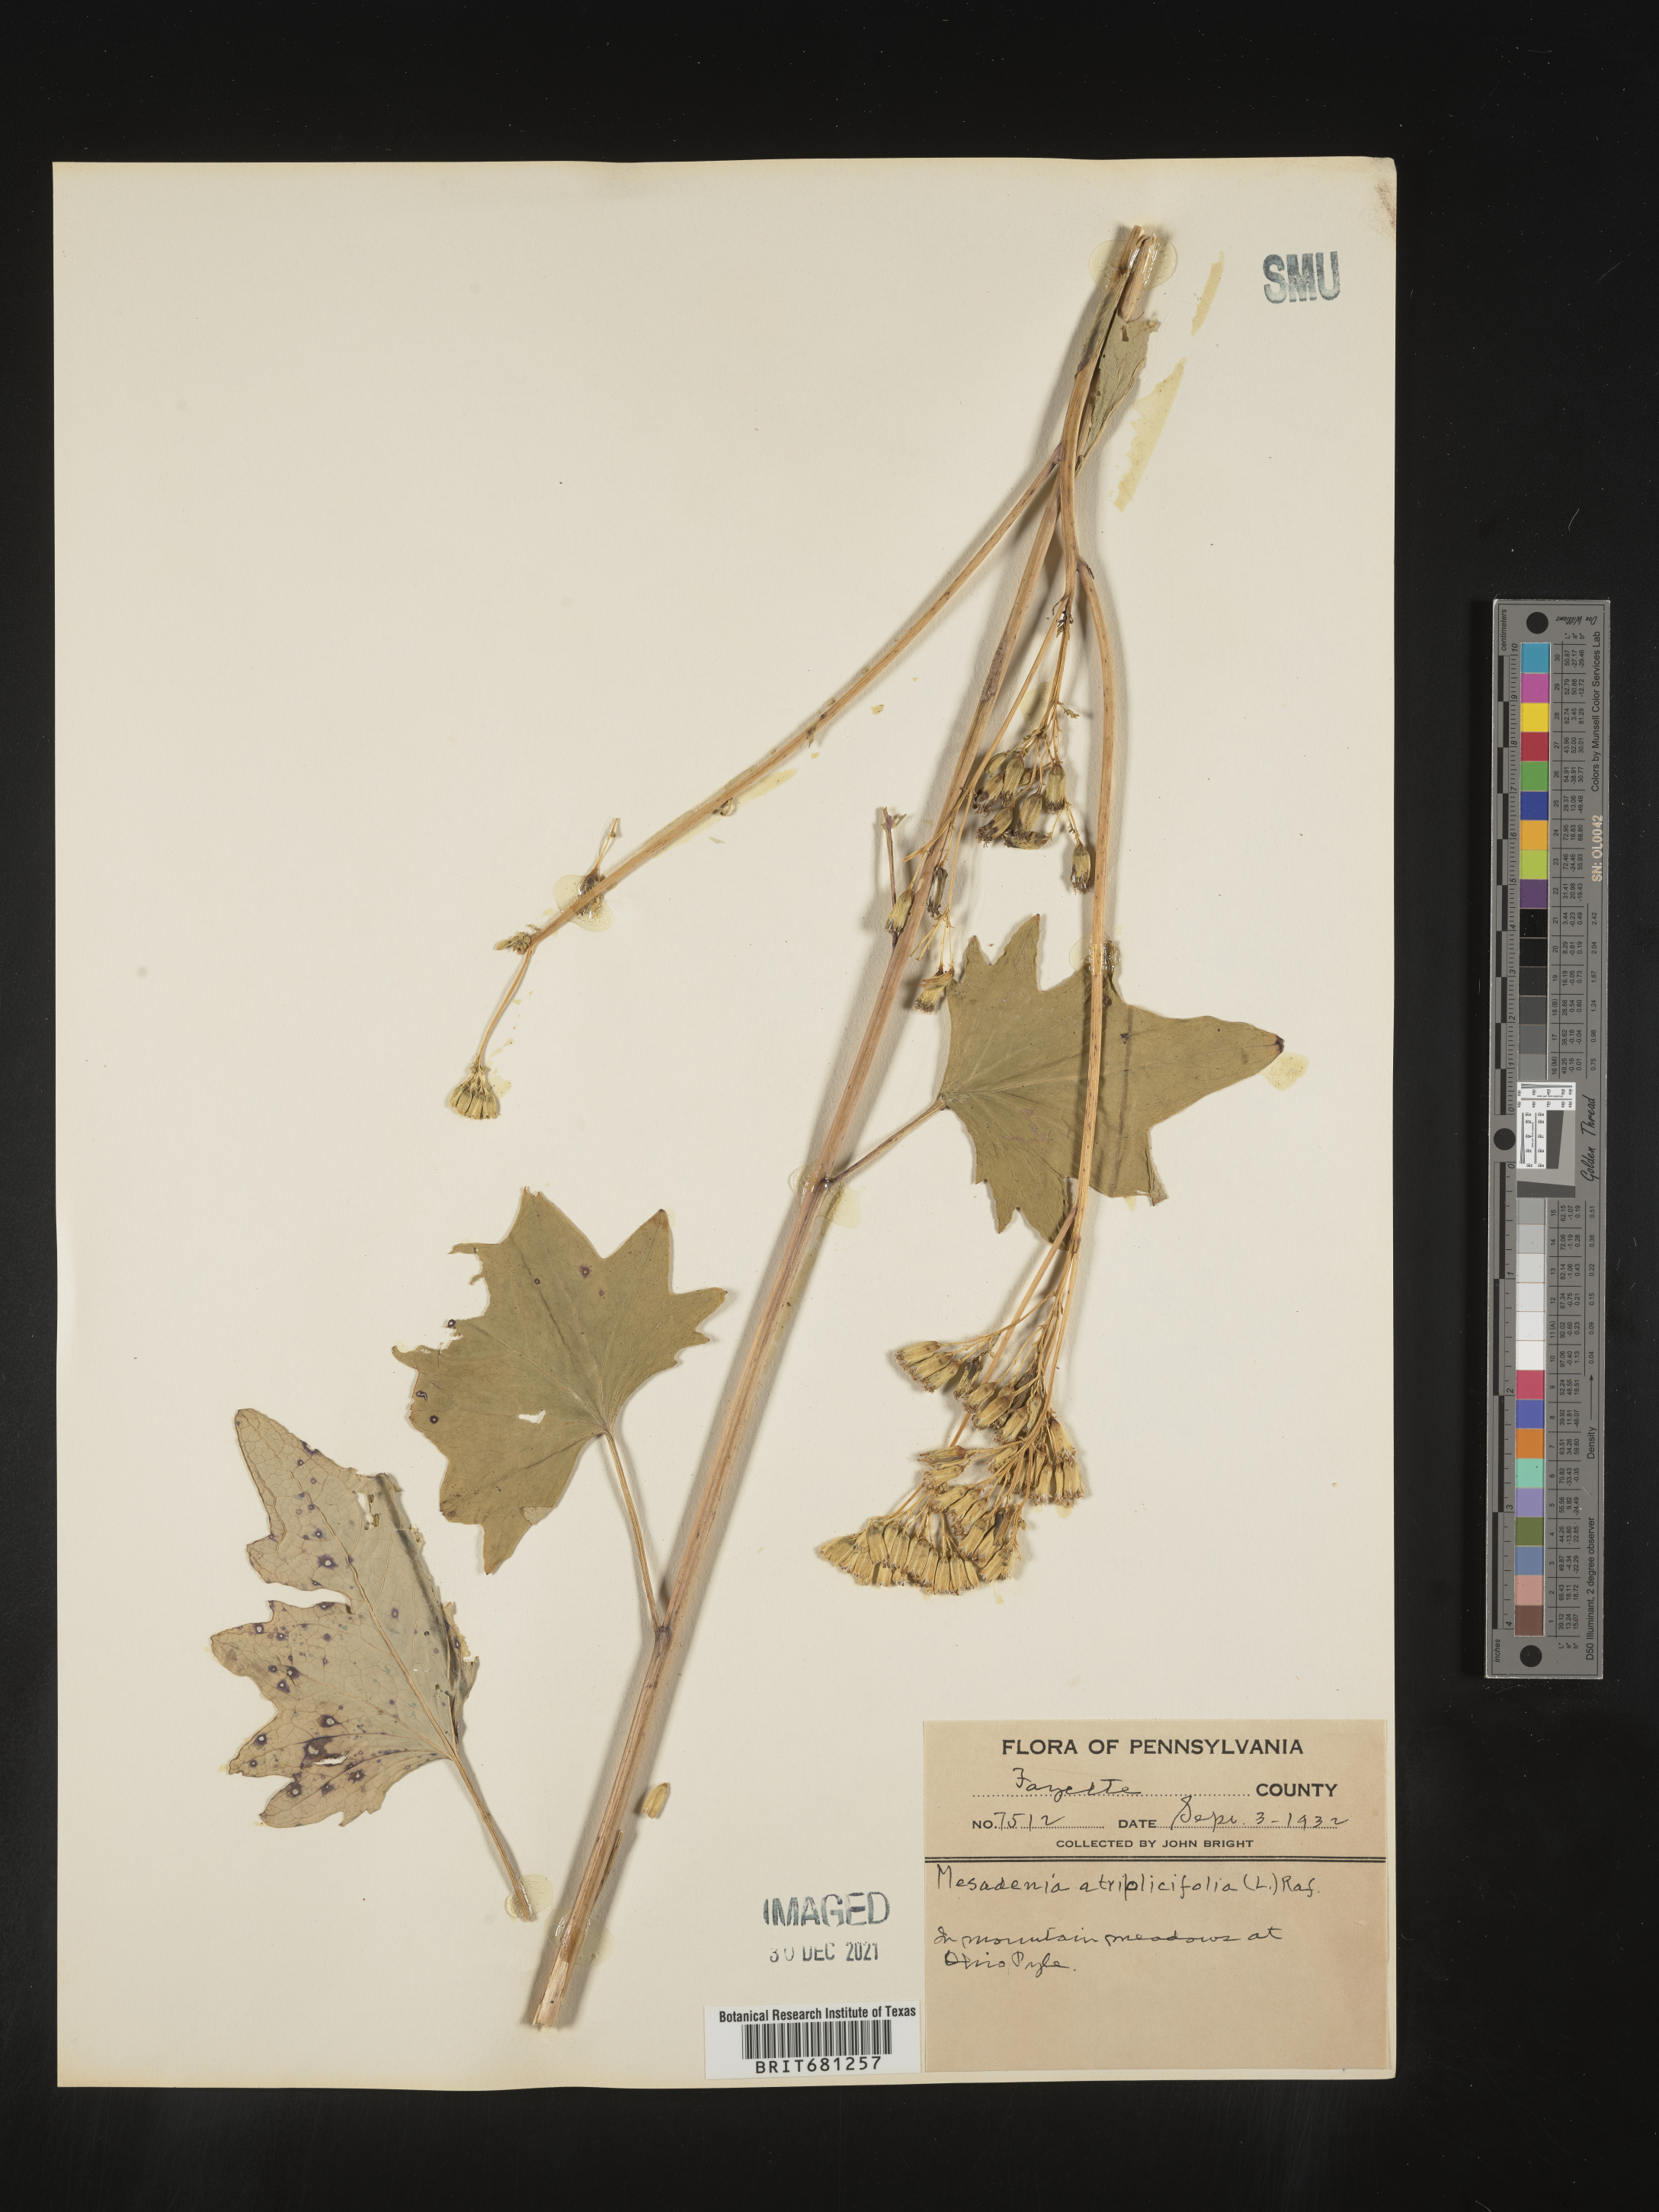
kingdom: Plantae
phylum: Tracheophyta
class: Magnoliopsida
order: Asterales
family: Asteraceae
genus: Arnoglossum
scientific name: Arnoglossum atriplicifolium
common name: Pale indian-plantain
